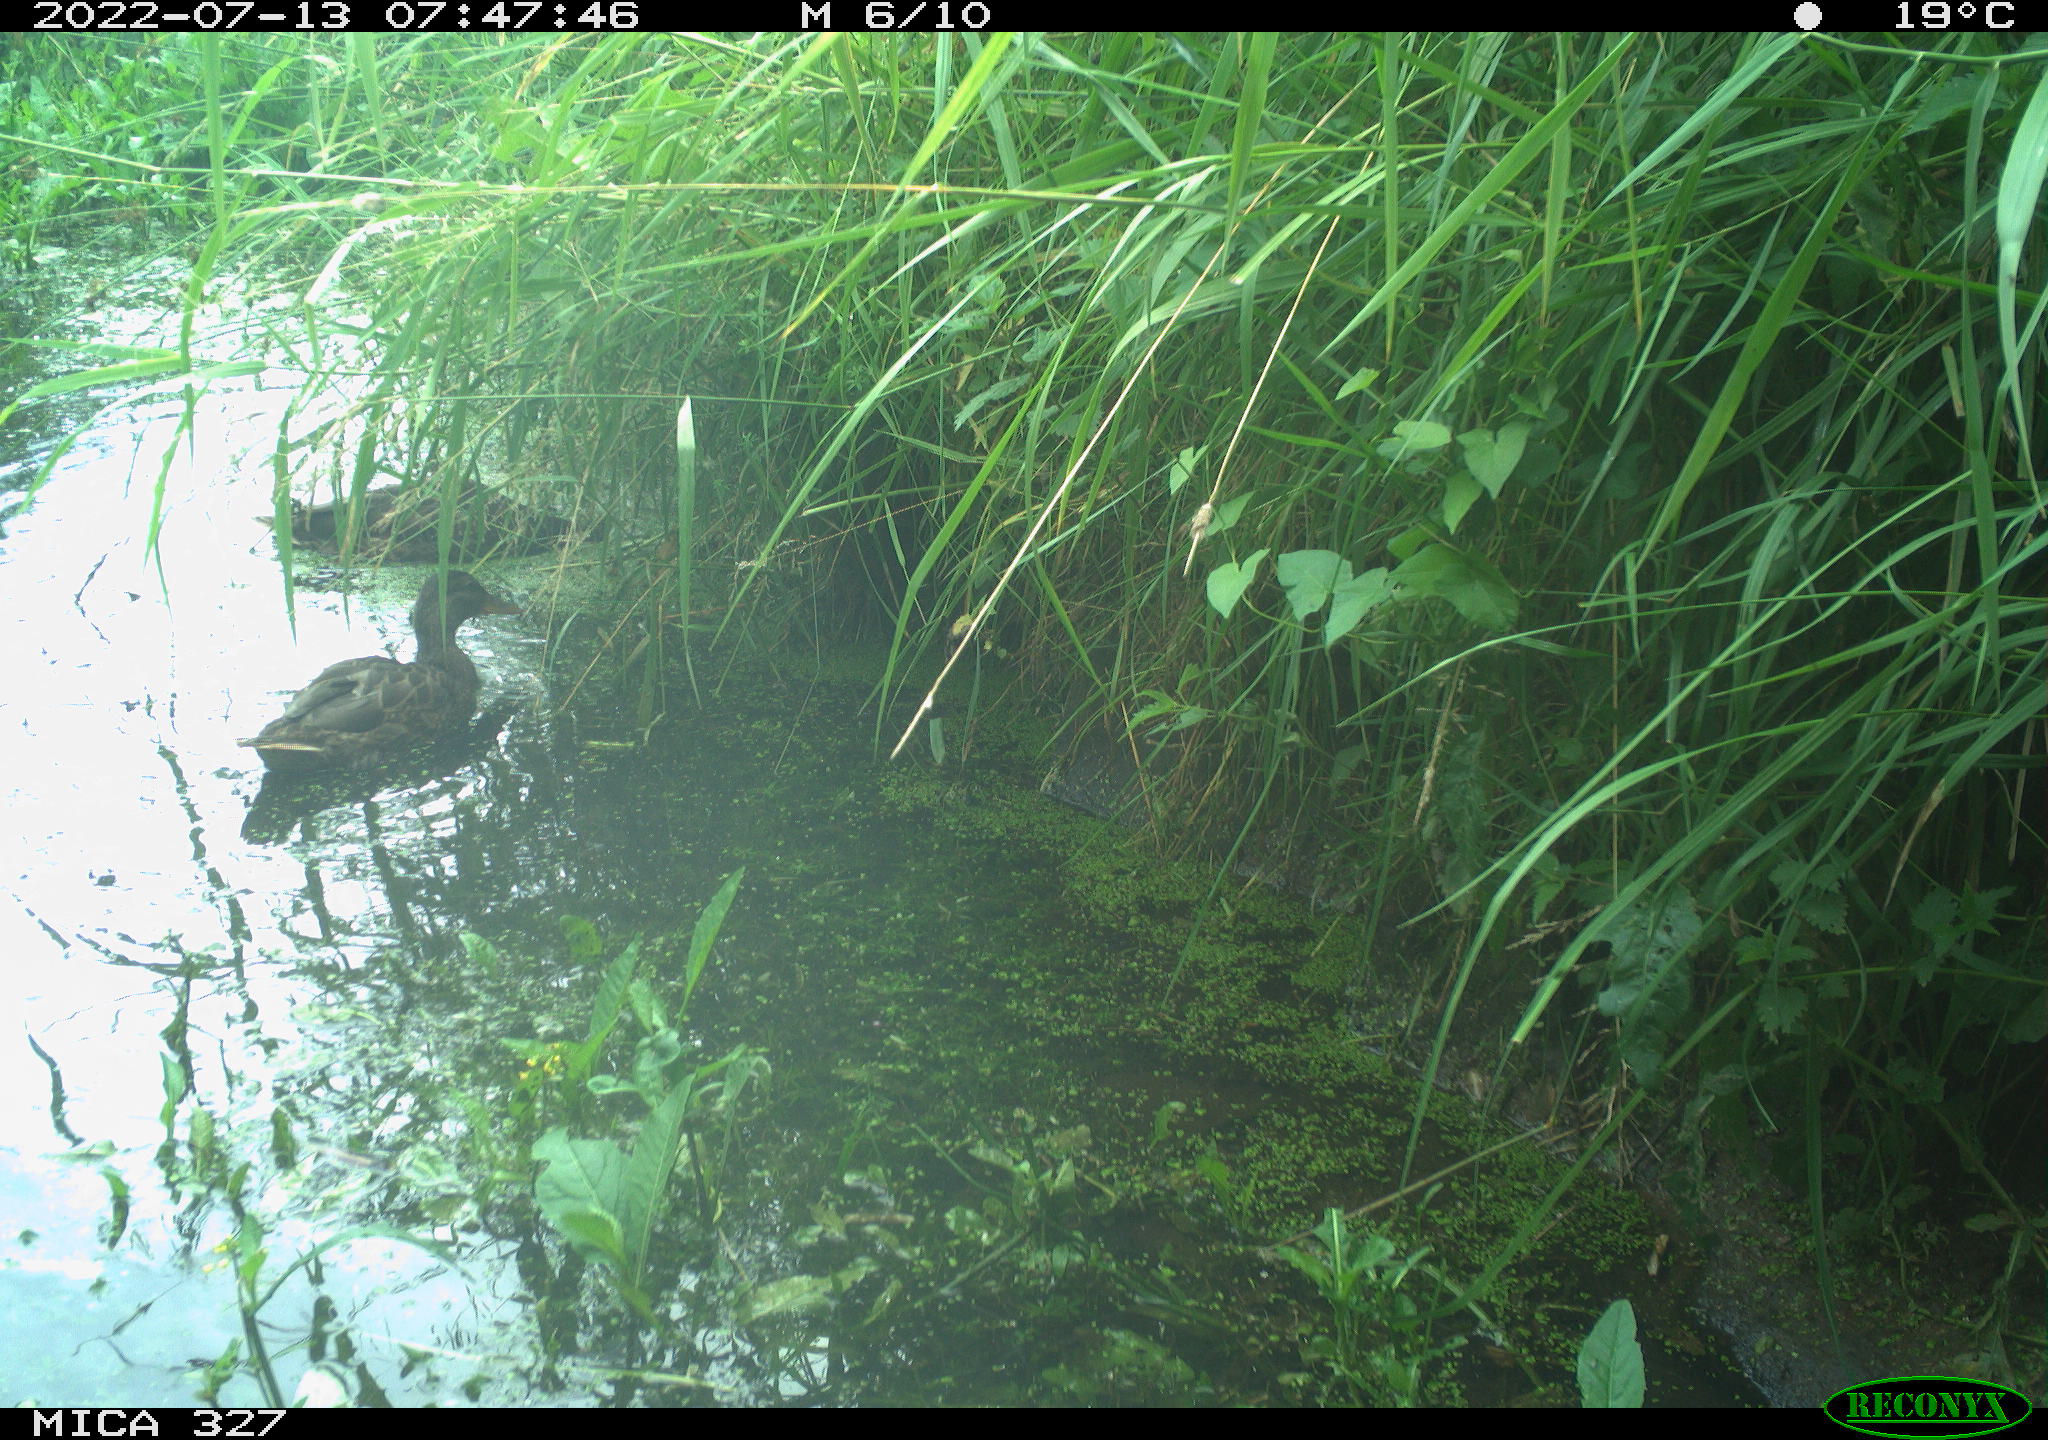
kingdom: Animalia
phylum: Chordata
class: Aves
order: Anseriformes
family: Anatidae
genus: Anas
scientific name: Anas
